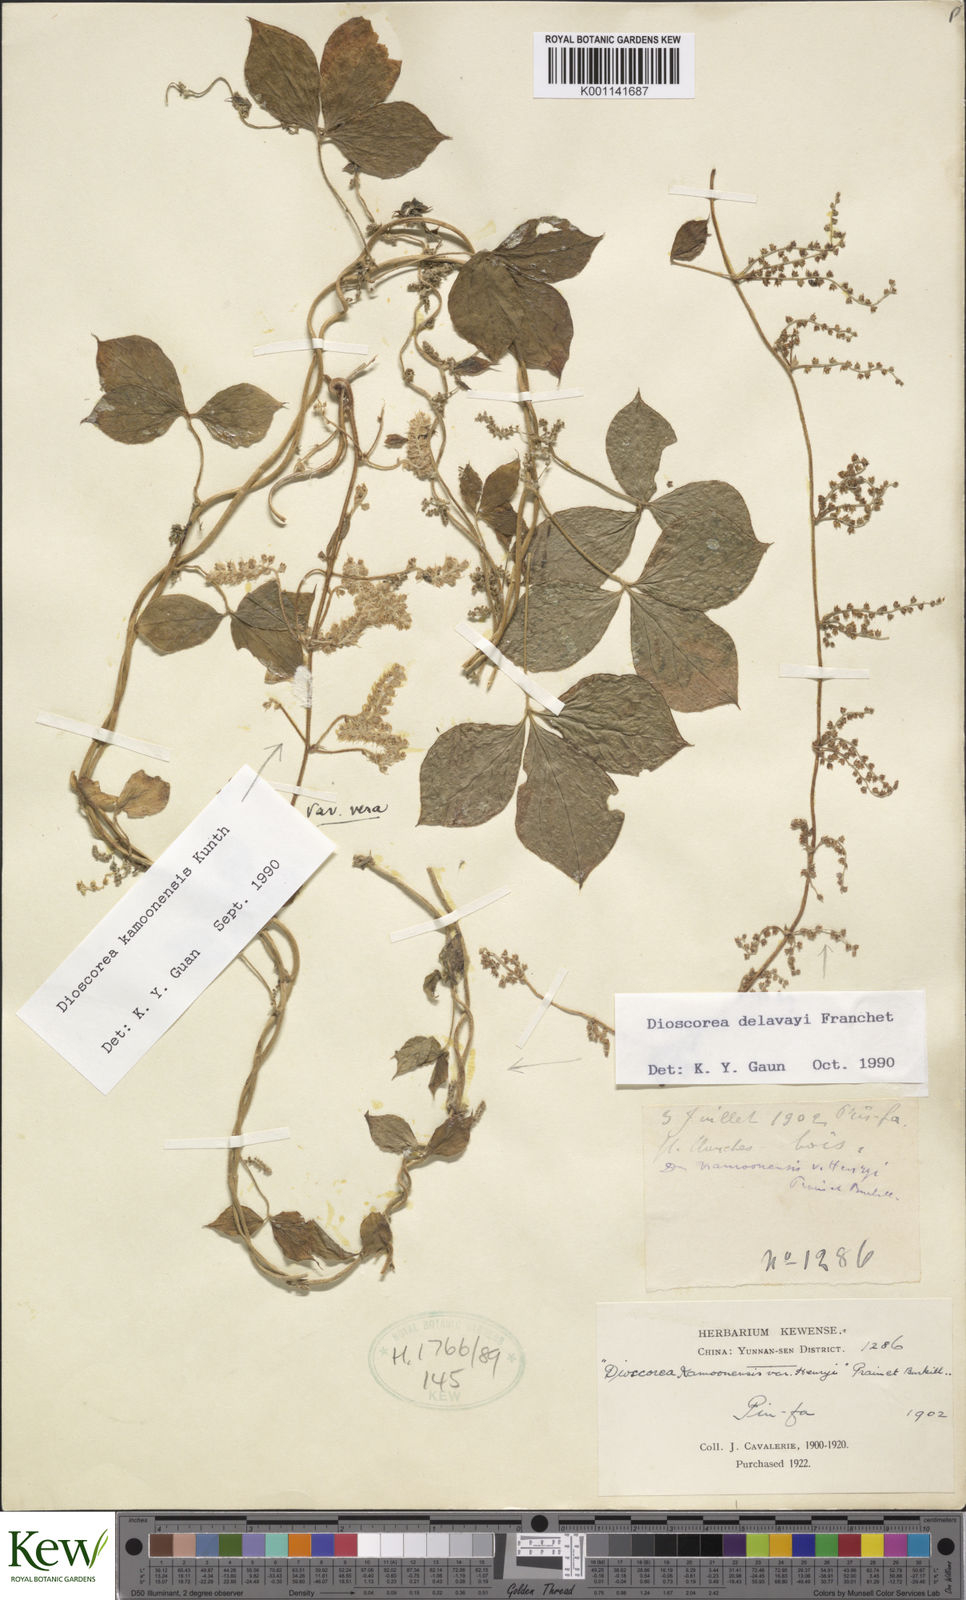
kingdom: Plantae
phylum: Tracheophyta
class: Liliopsida
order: Dioscoreales
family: Dioscoreaceae
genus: Dioscorea
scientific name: Dioscorea kamoonensis
